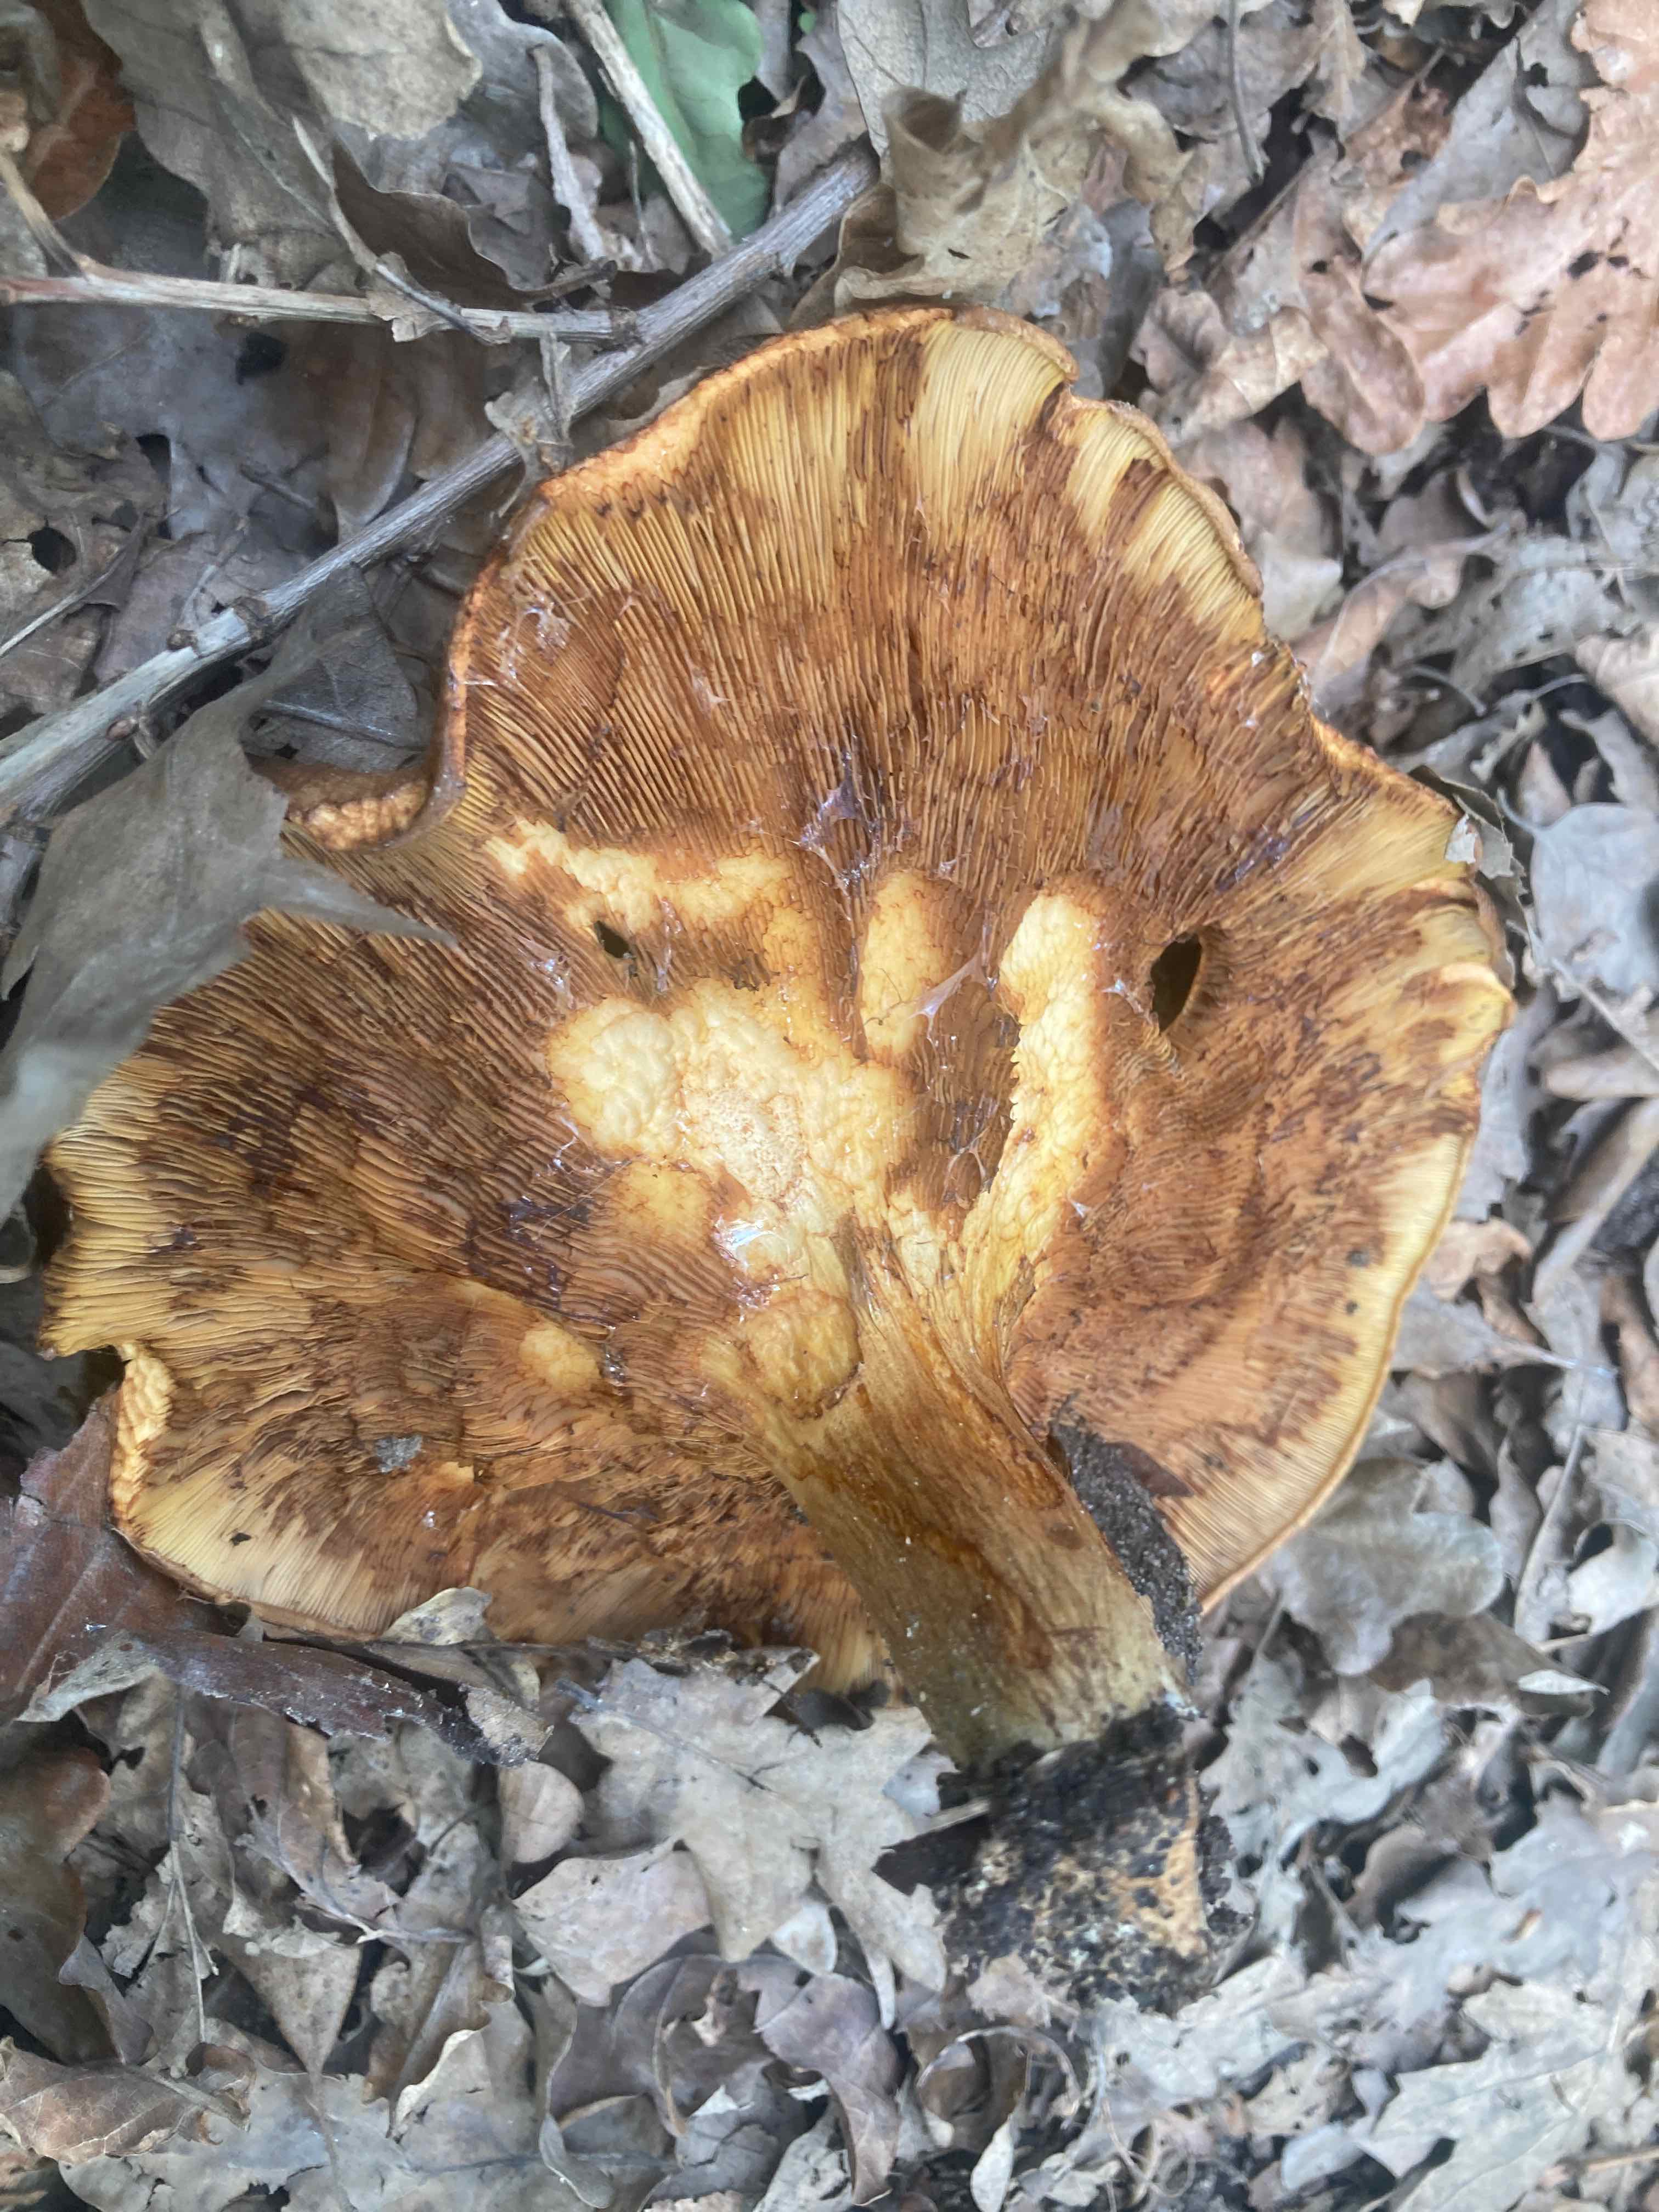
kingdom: Fungi
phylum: Basidiomycota
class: Agaricomycetes
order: Boletales
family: Paxillaceae
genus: Paxillus
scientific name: Paxillus obscurisporus
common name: mahognisporet netbladhat
